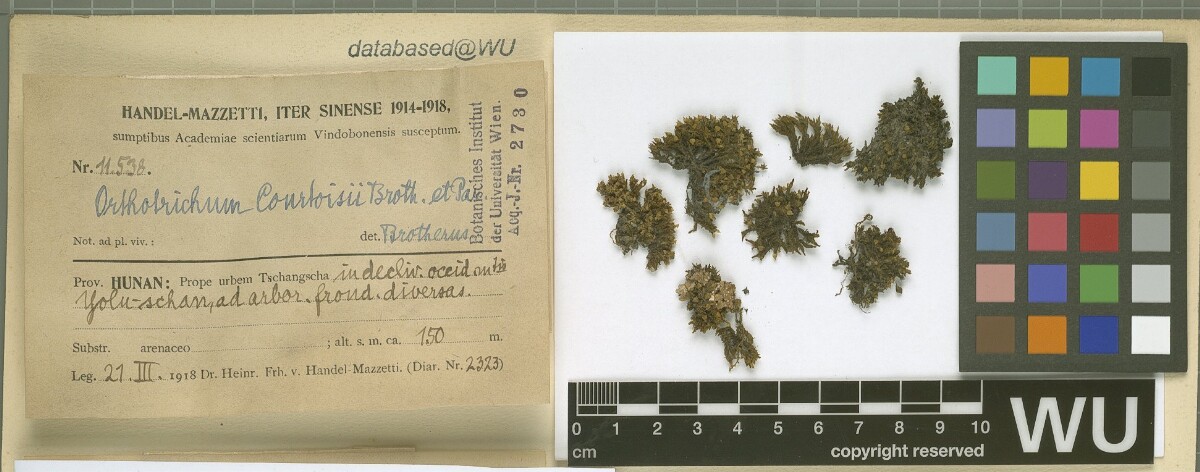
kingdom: Plantae
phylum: Bryophyta
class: Bryopsida
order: Orthotrichales
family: Orthotrichaceae
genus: Orthotrichum
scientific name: Orthotrichum consobrinum
